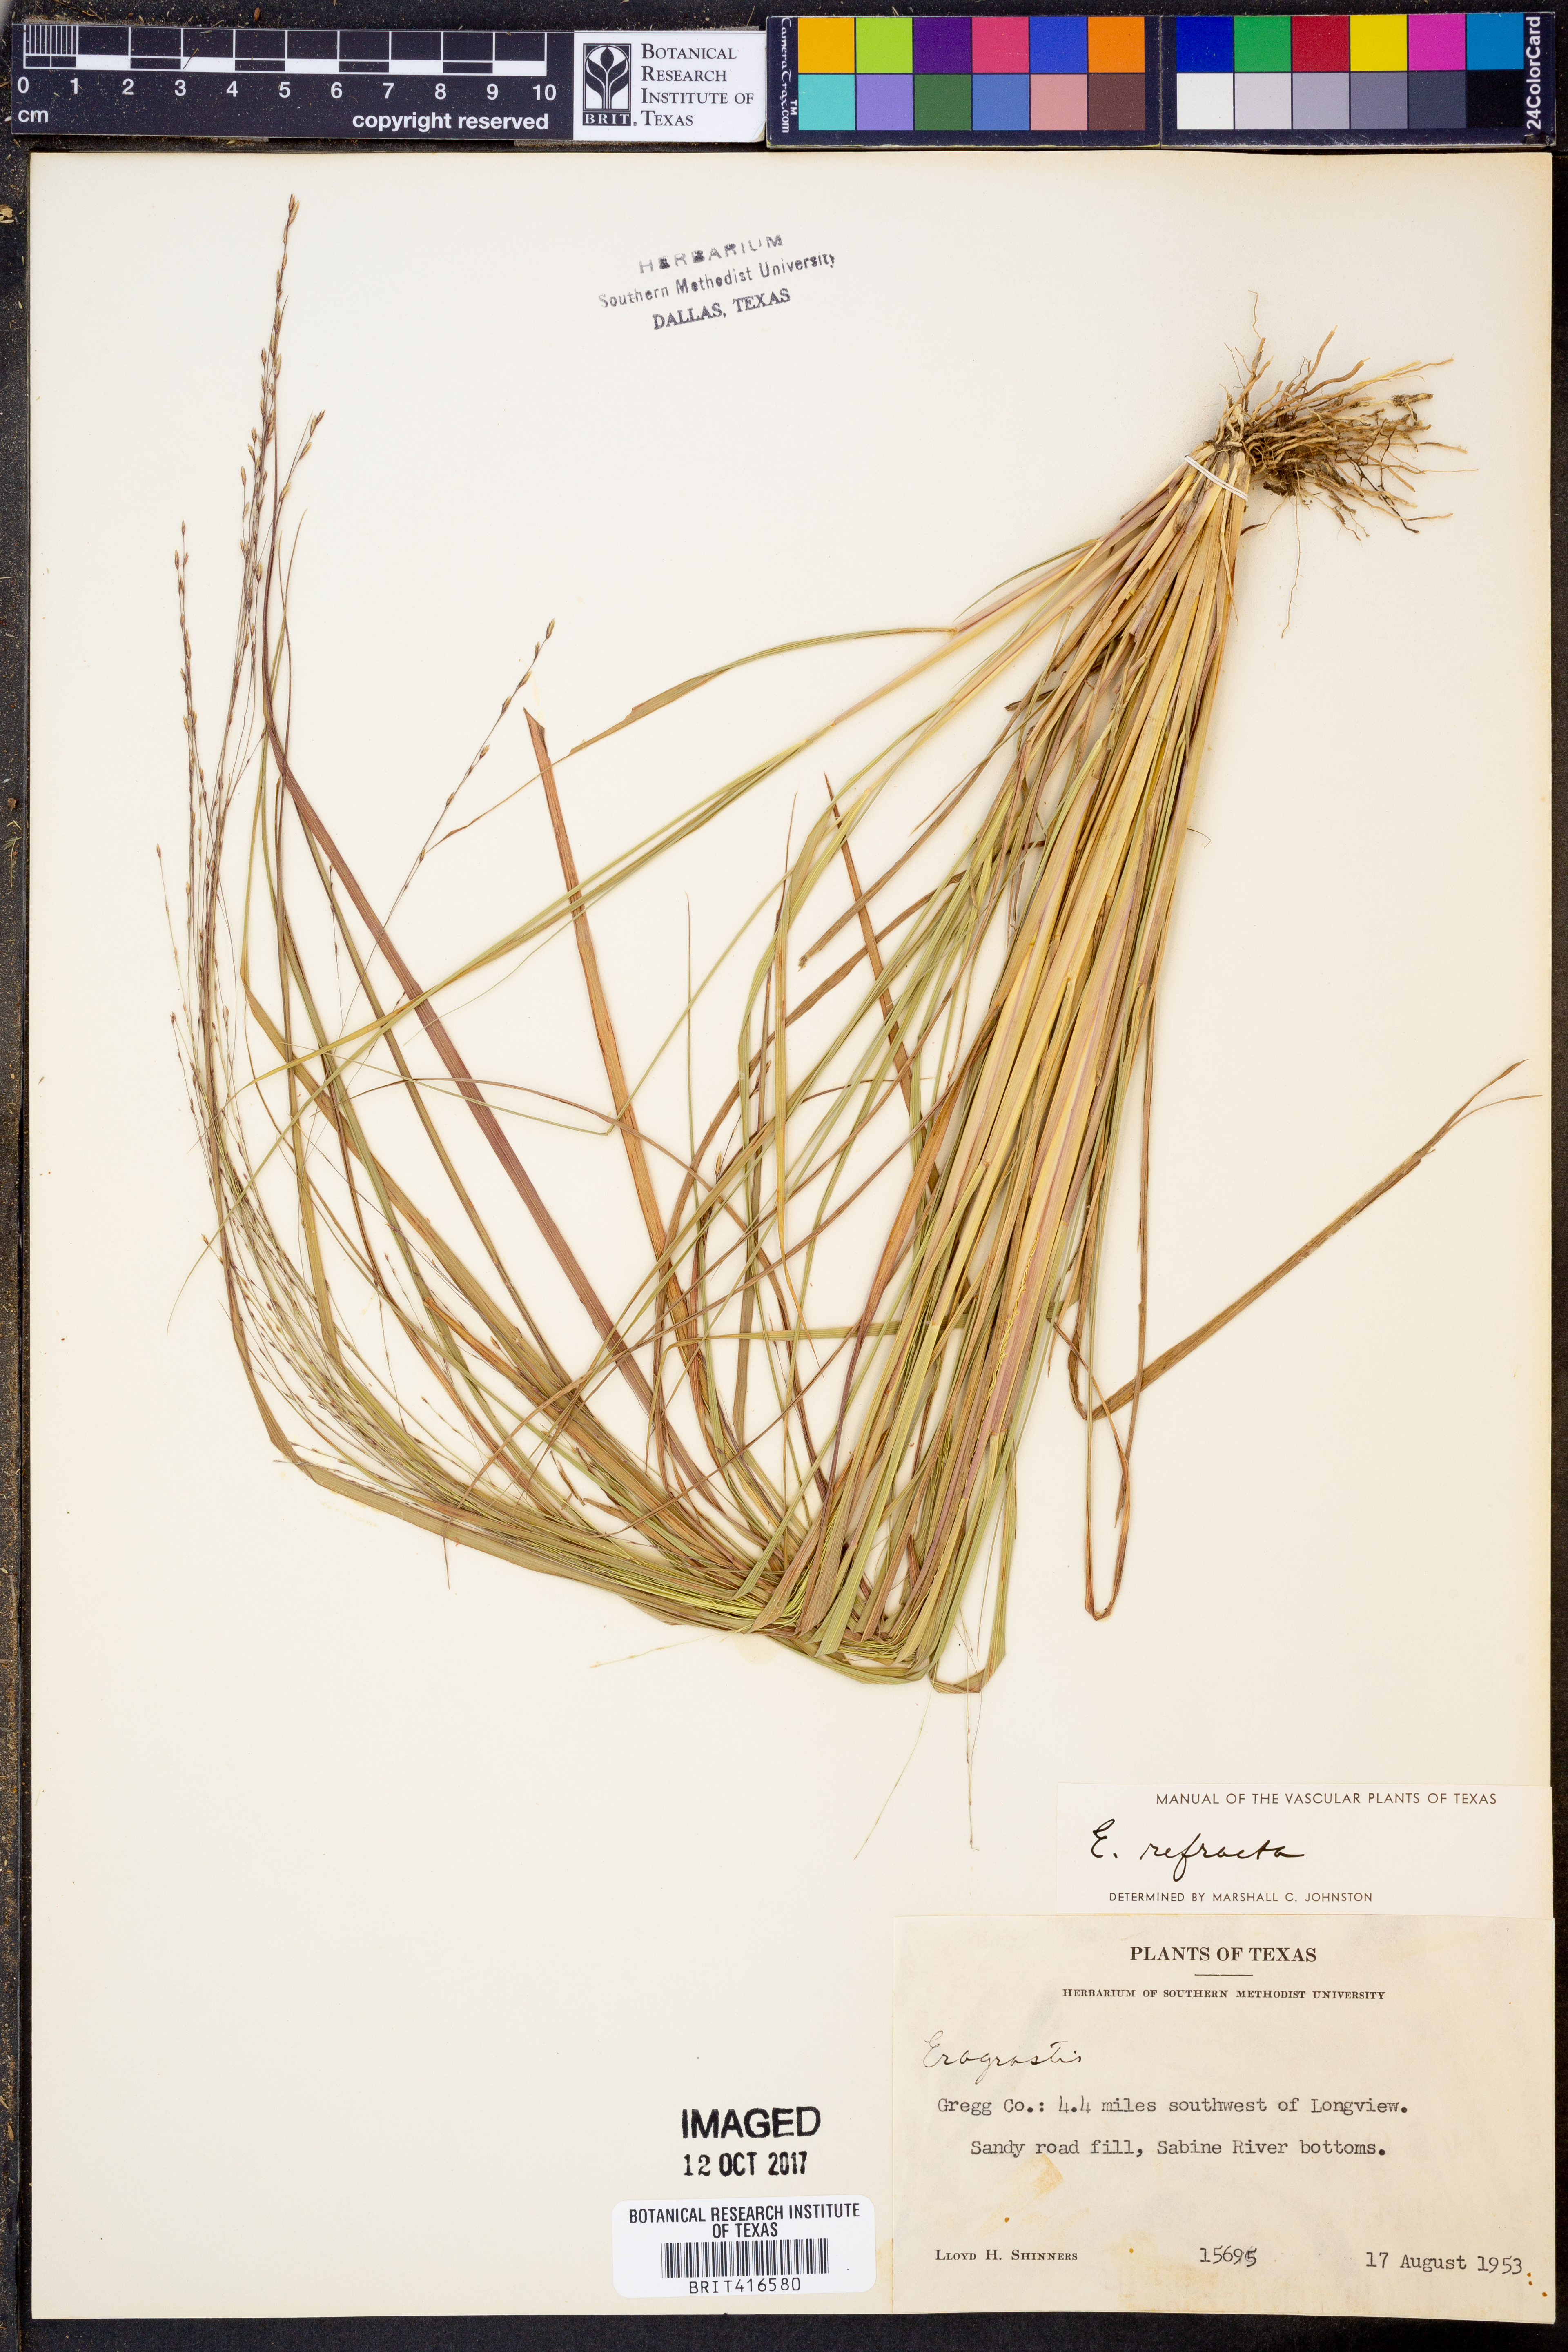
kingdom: Plantae
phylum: Tracheophyta
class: Liliopsida
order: Poales
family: Poaceae
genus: Eragrostis
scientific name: Eragrostis refracta
